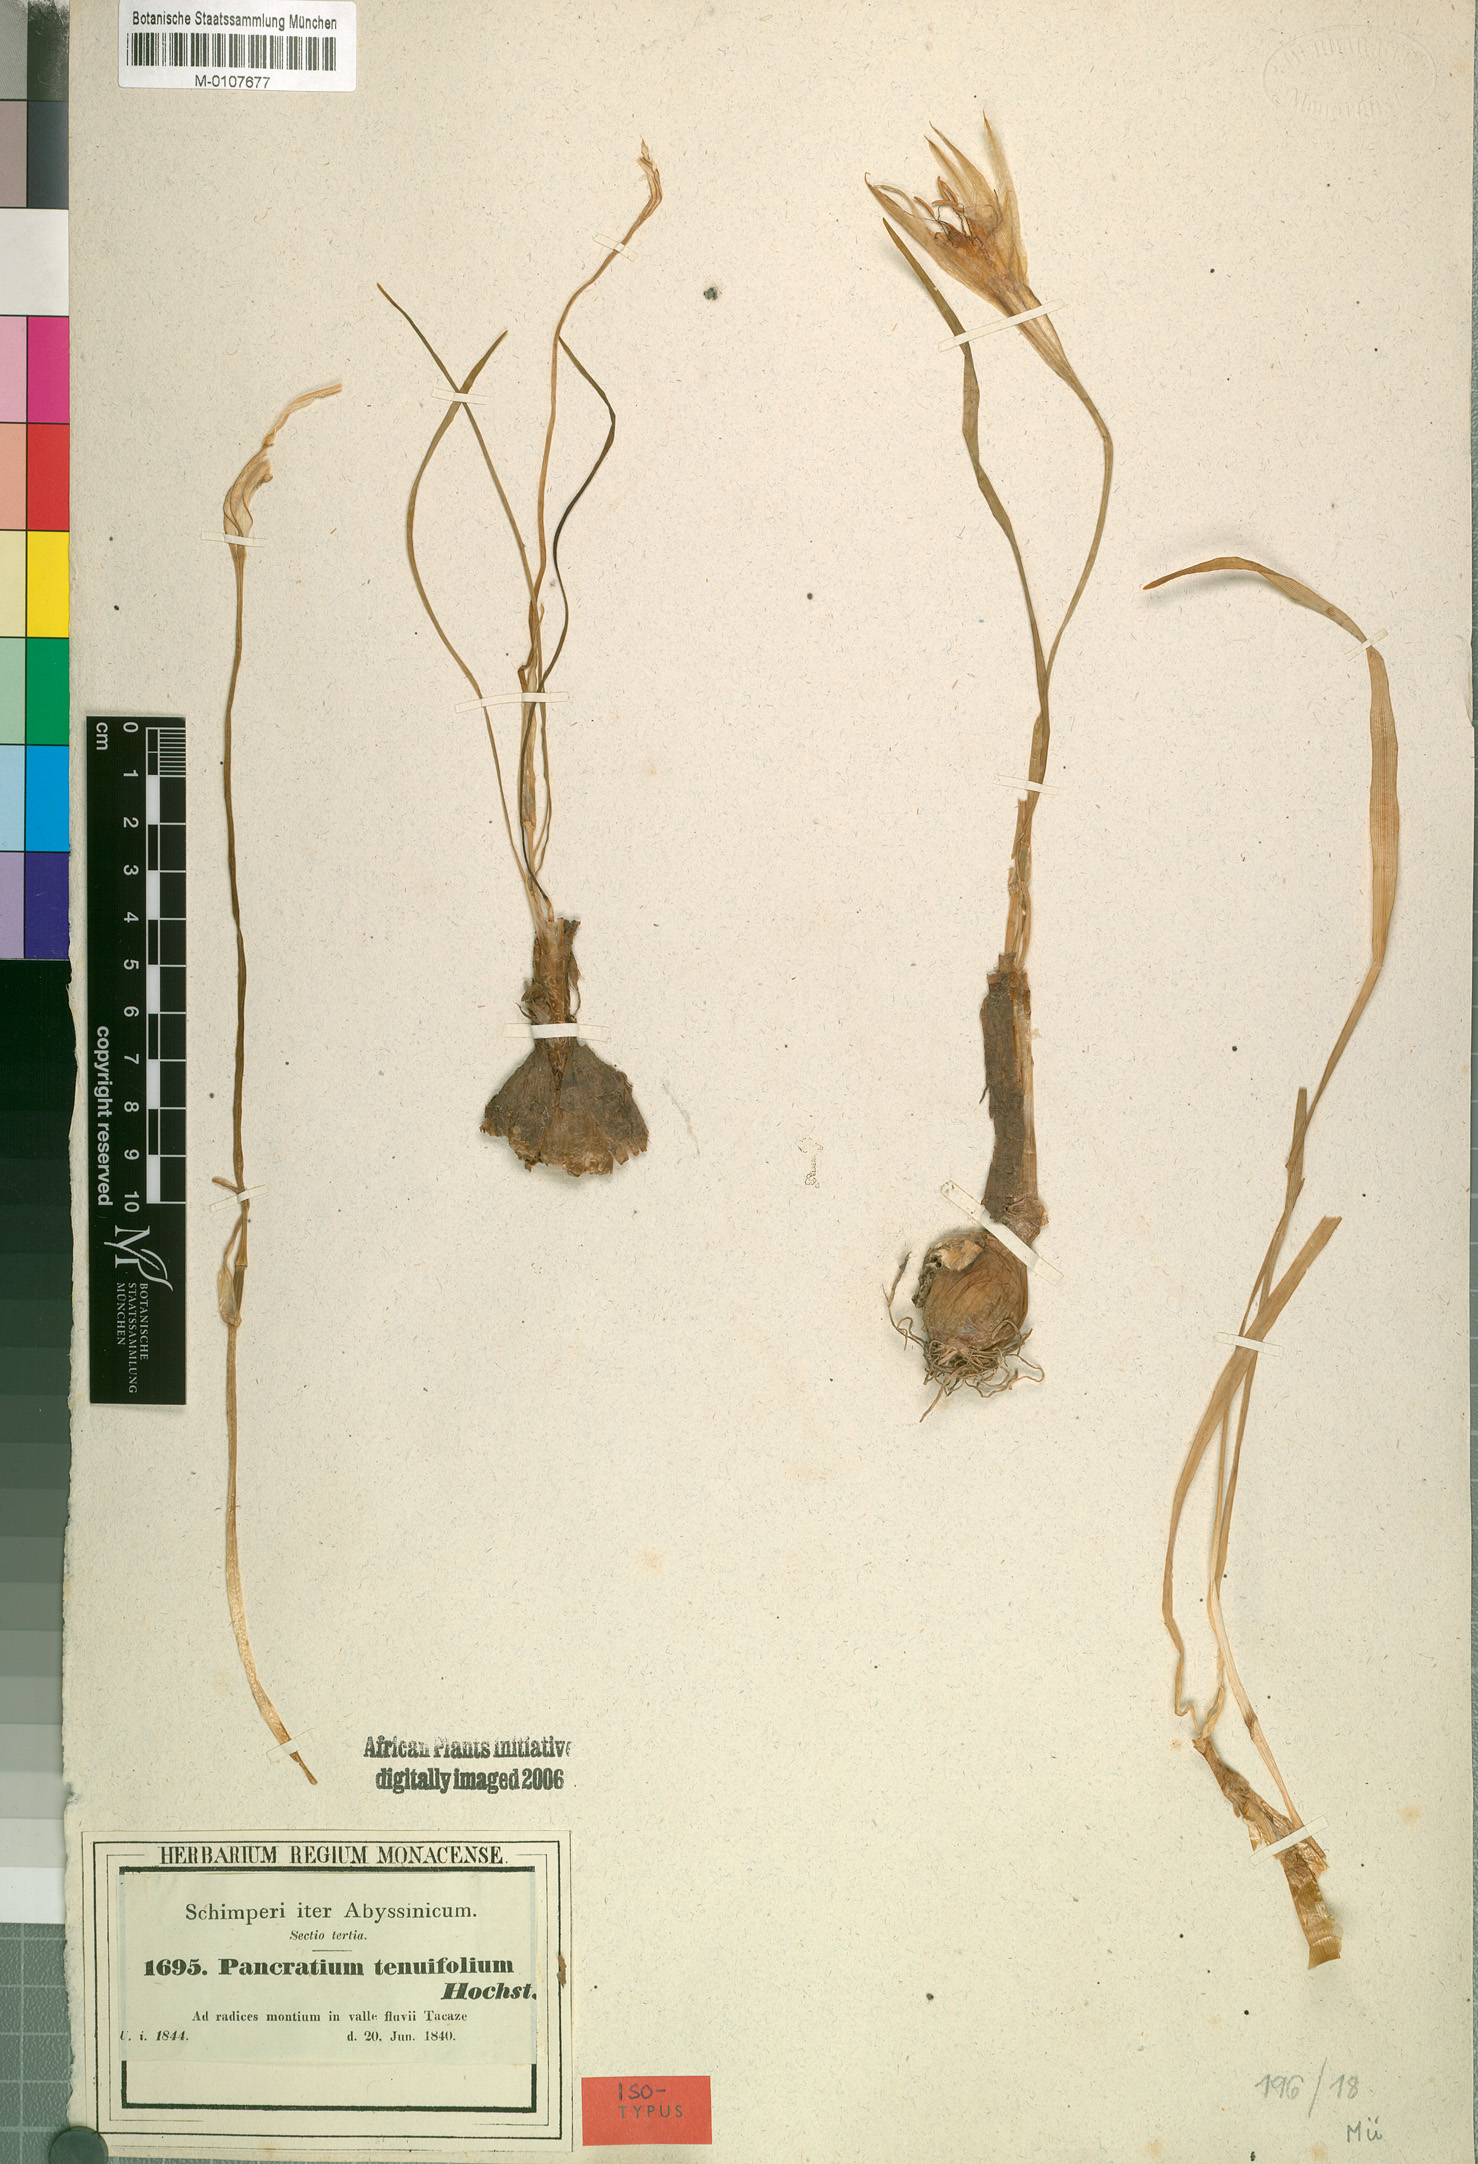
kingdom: Plantae
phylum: Tracheophyta
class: Liliopsida
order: Asparagales
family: Amaryllidaceae
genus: Pancratium
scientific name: Pancratium tenuifolium
